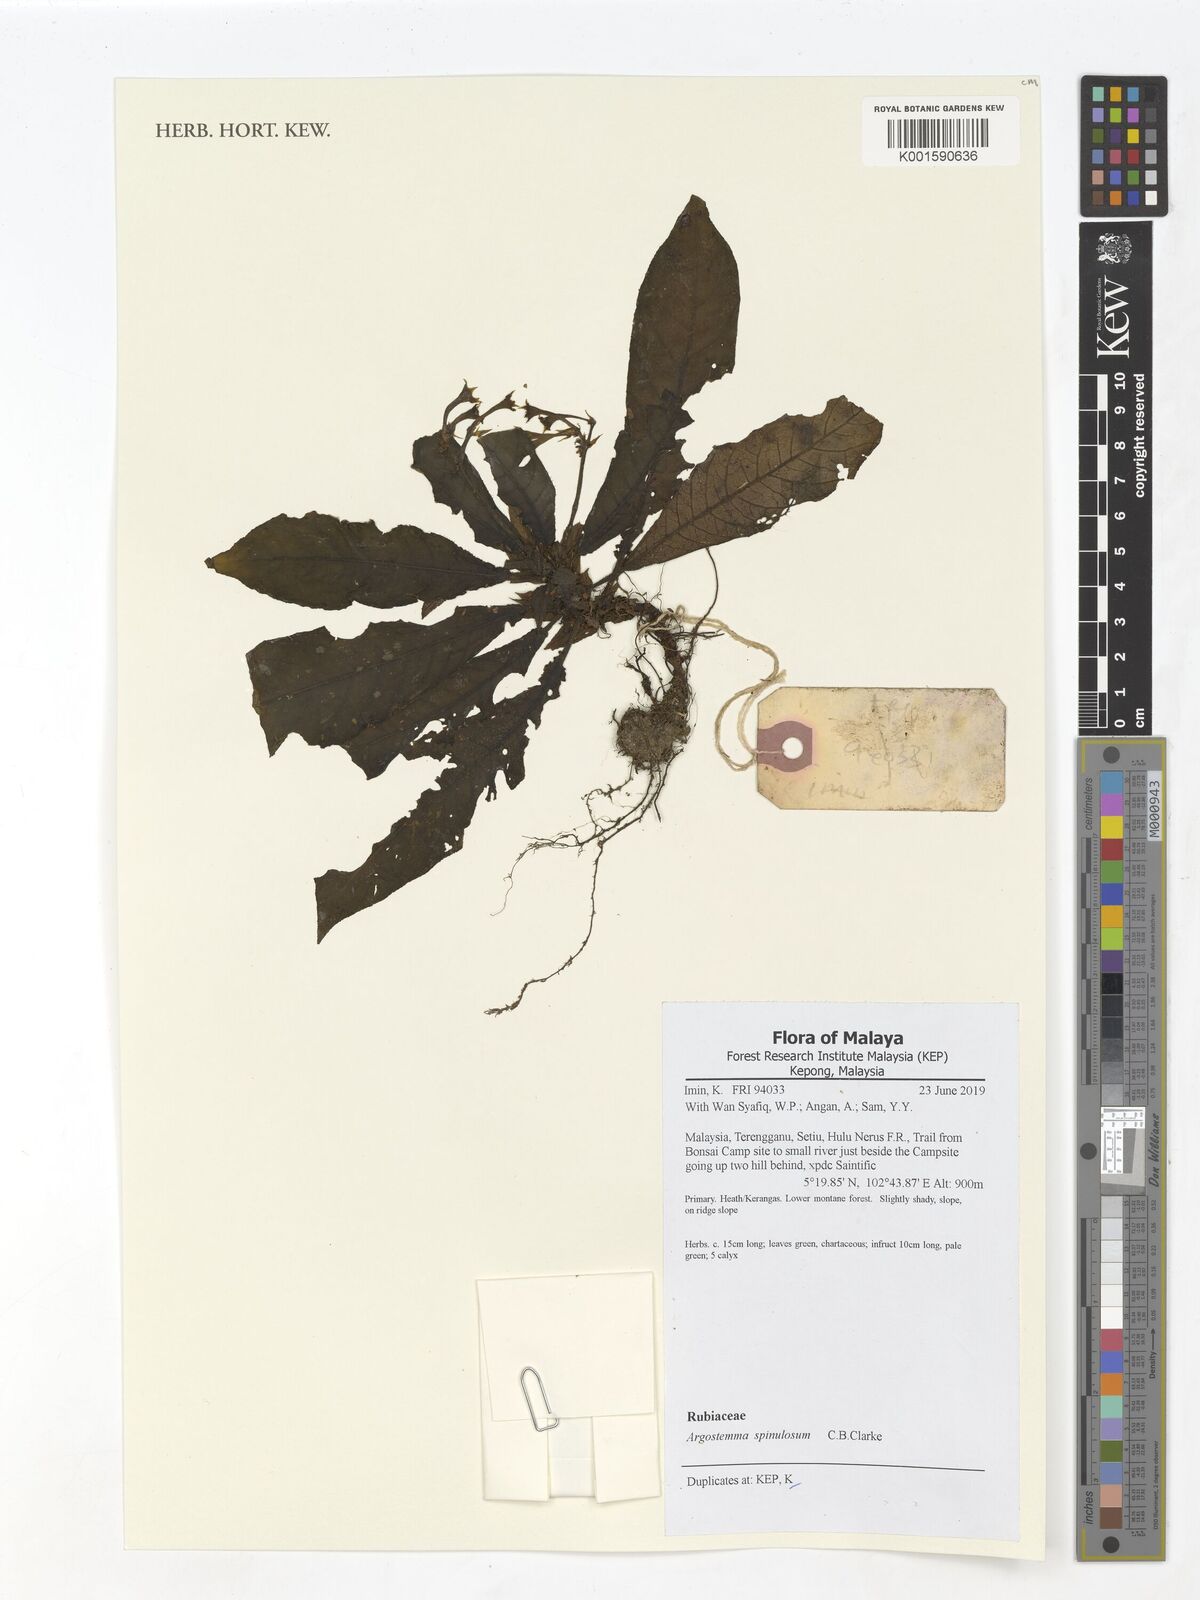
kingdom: Plantae
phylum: Tracheophyta
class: Magnoliopsida
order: Gentianales
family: Rubiaceae
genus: Argostemma
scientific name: Argostemma longifolium
